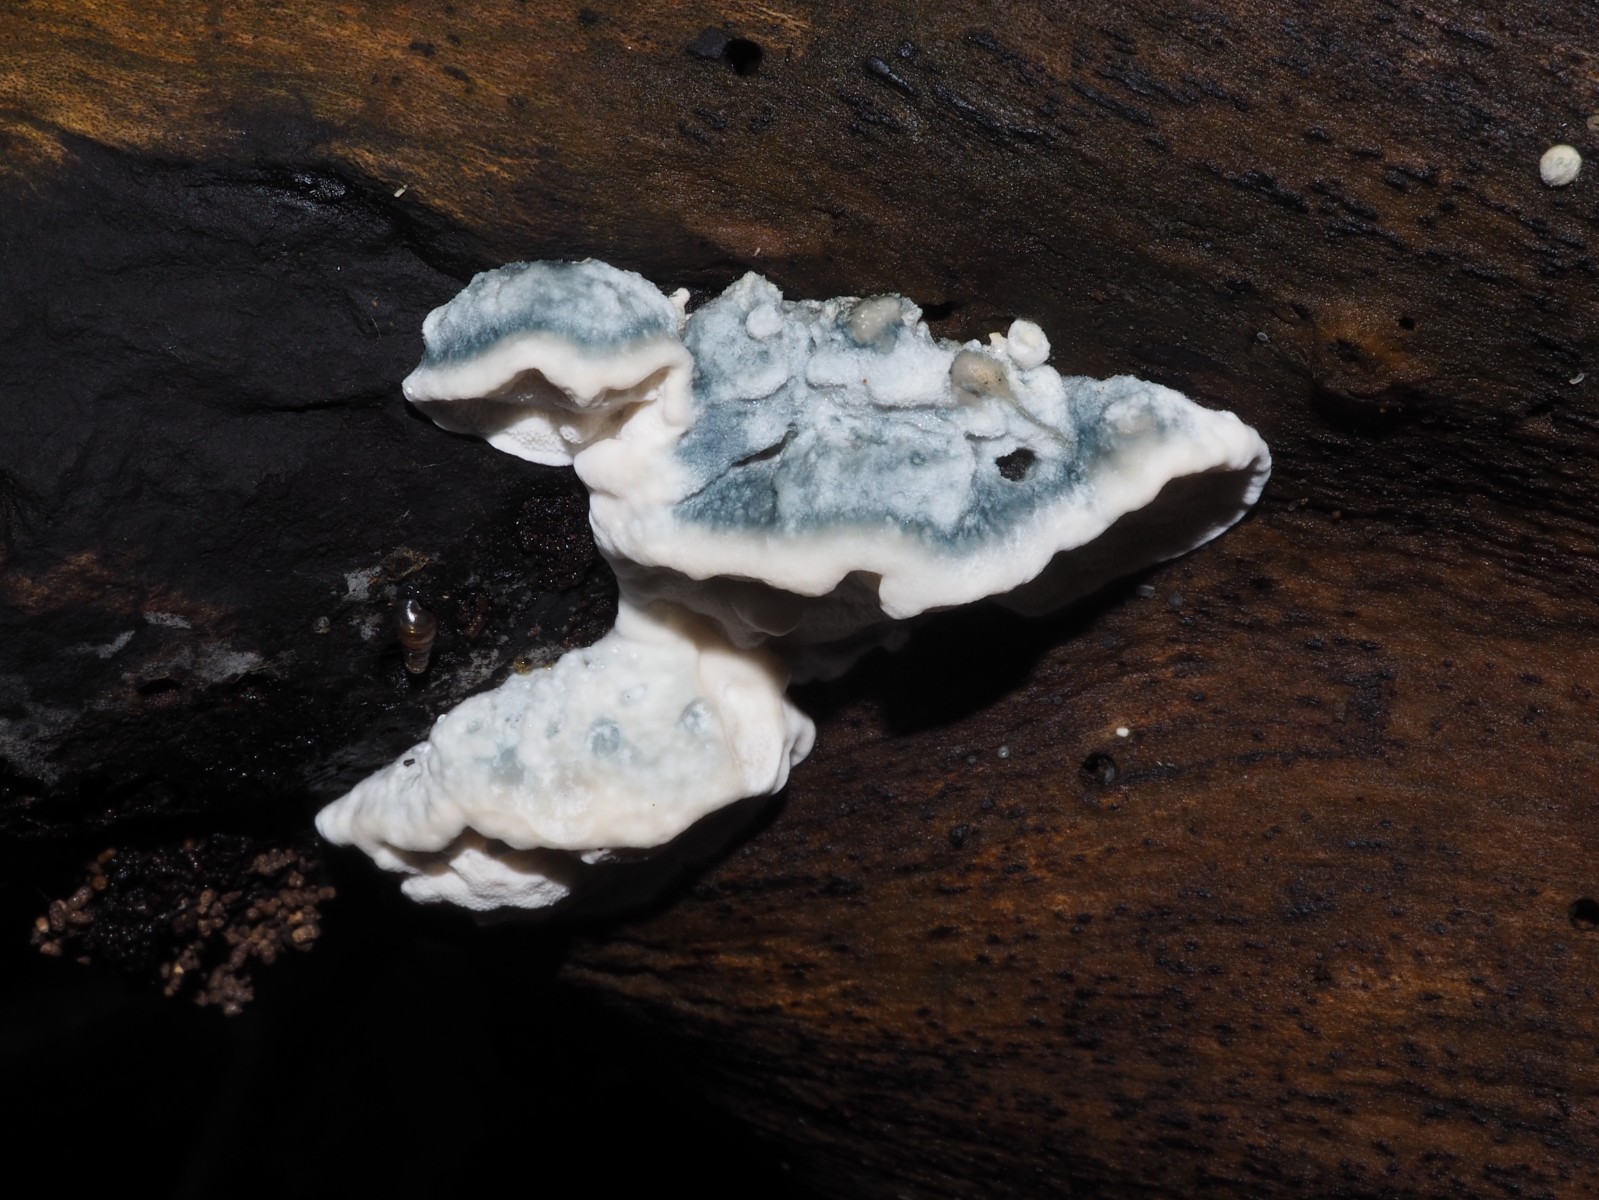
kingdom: Fungi
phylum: Basidiomycota
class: Agaricomycetes
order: Polyporales
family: Polyporaceae
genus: Cyanosporus
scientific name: Cyanosporus alni
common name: blegblå kødporesvamp
